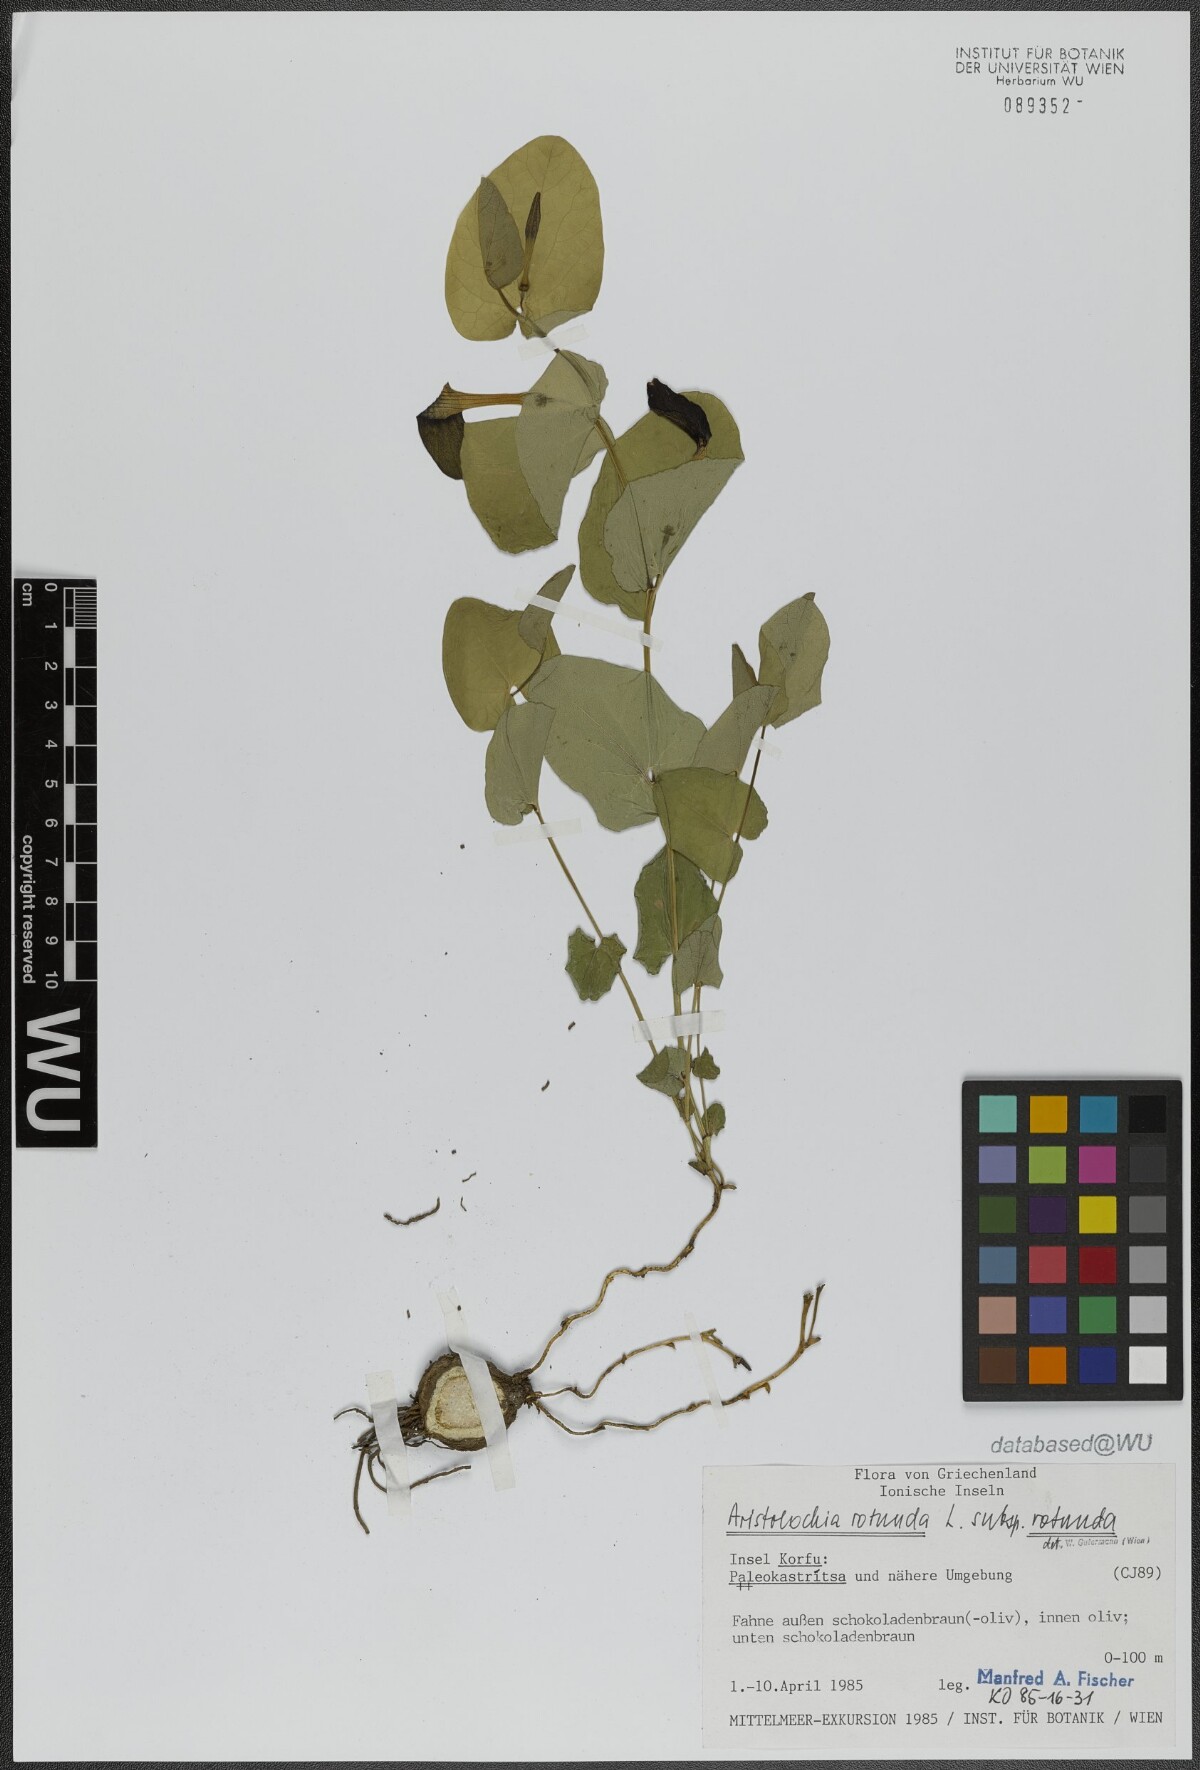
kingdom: Plantae
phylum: Tracheophyta
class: Magnoliopsida
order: Piperales
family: Aristolochiaceae
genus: Aristolochia
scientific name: Aristolochia rotunda
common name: Smearwort
